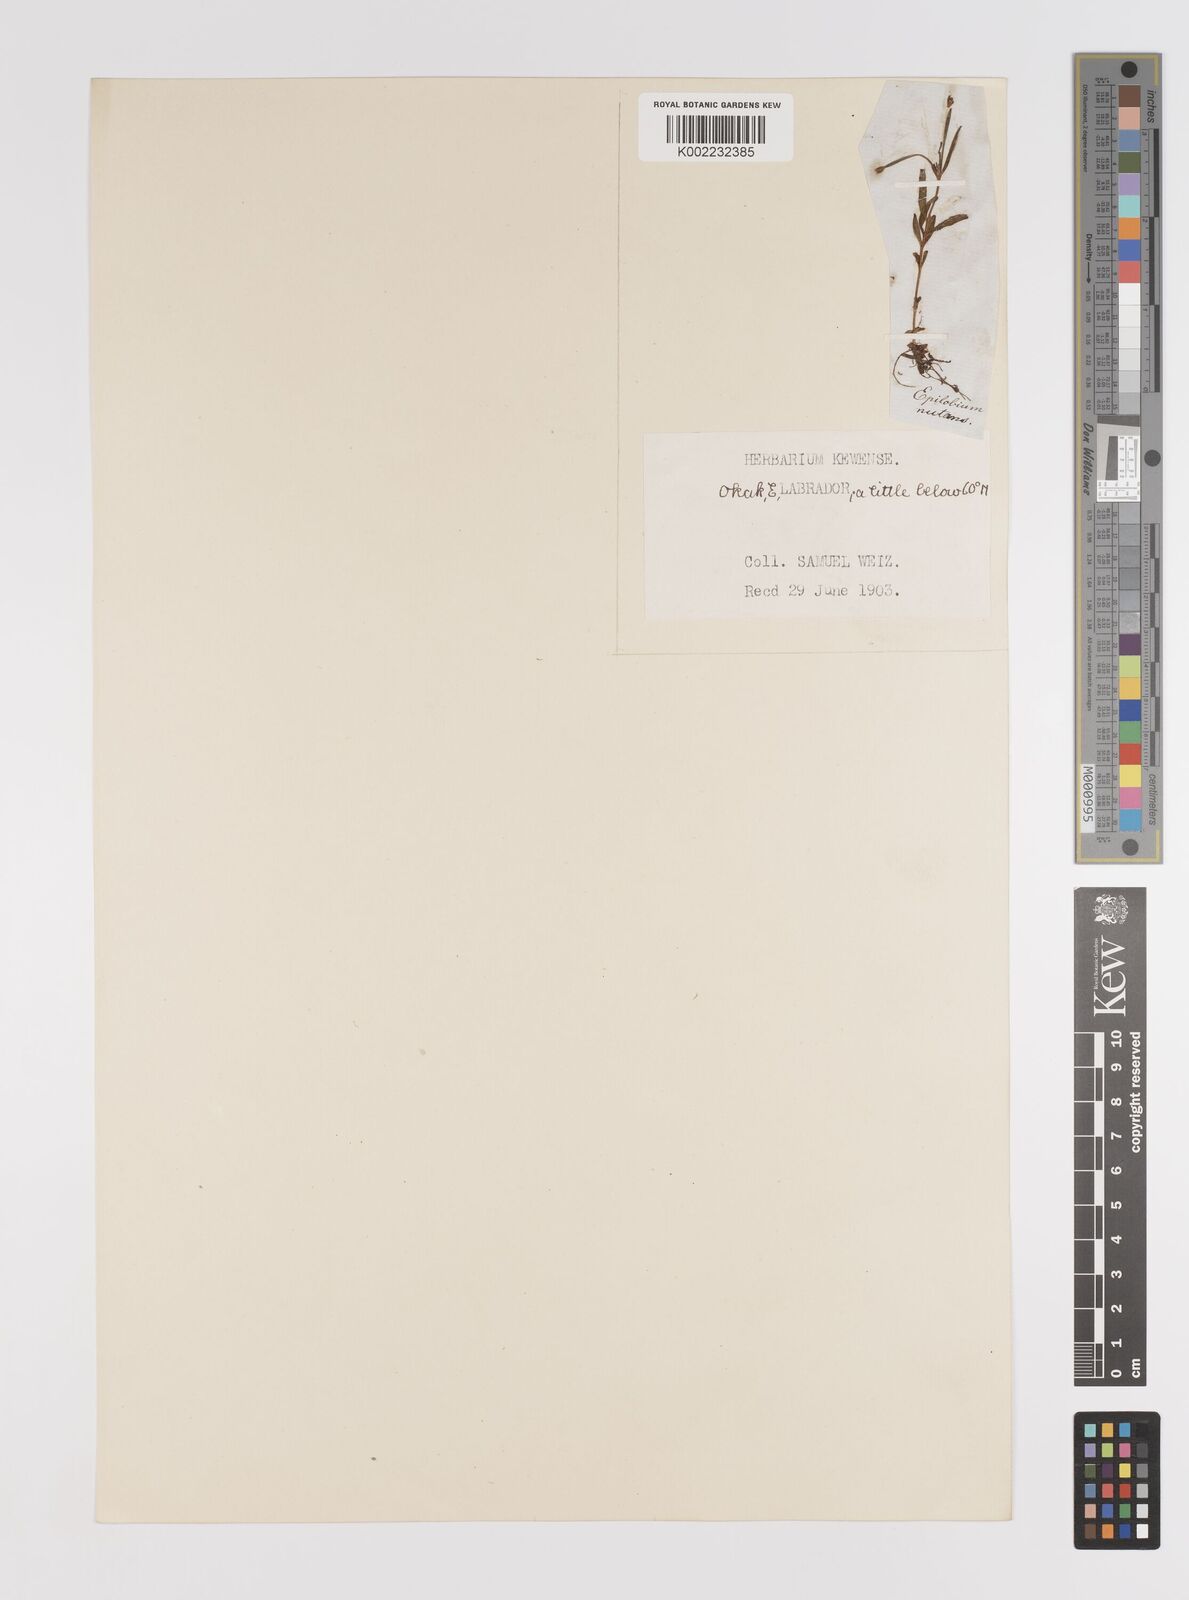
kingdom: Plantae
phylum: Tracheophyta
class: Magnoliopsida
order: Myrtales
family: Onagraceae
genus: Epilobium
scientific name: Epilobium palustre
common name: Marsh willowherb
